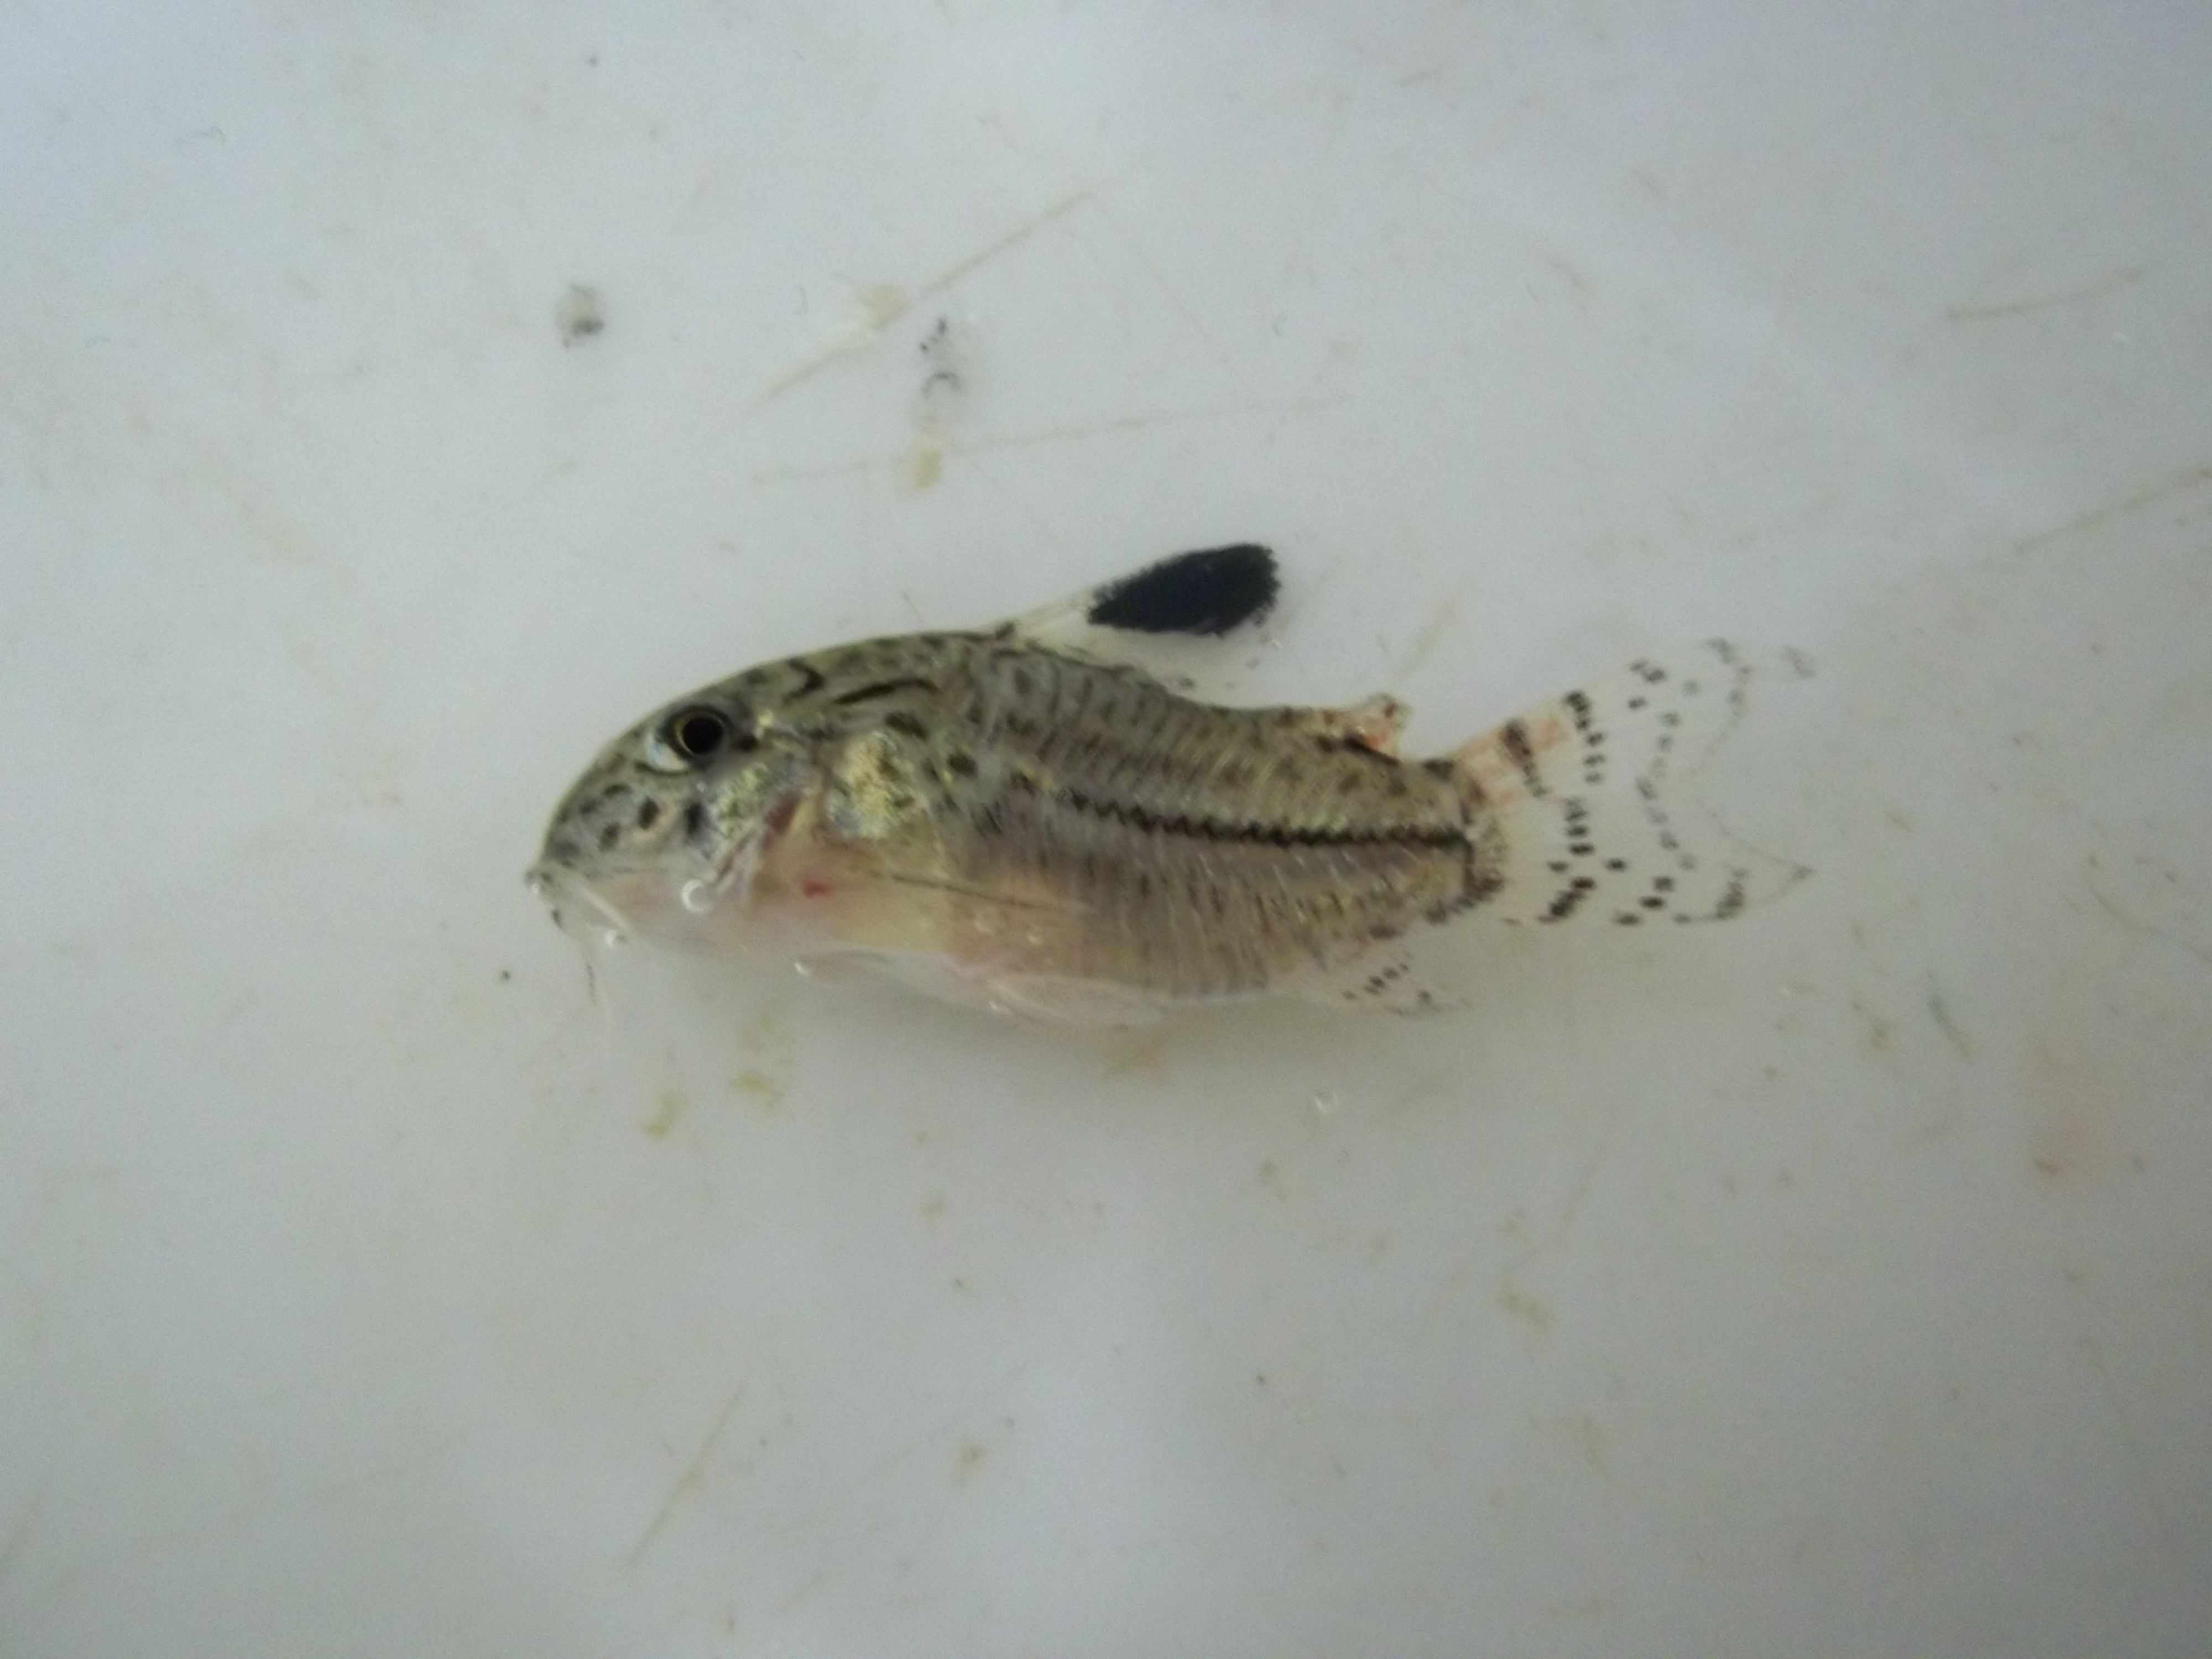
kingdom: Animalia
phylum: Chordata
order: Siluriformes
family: Callichthyidae
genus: Corydoras
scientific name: Corydoras julii
